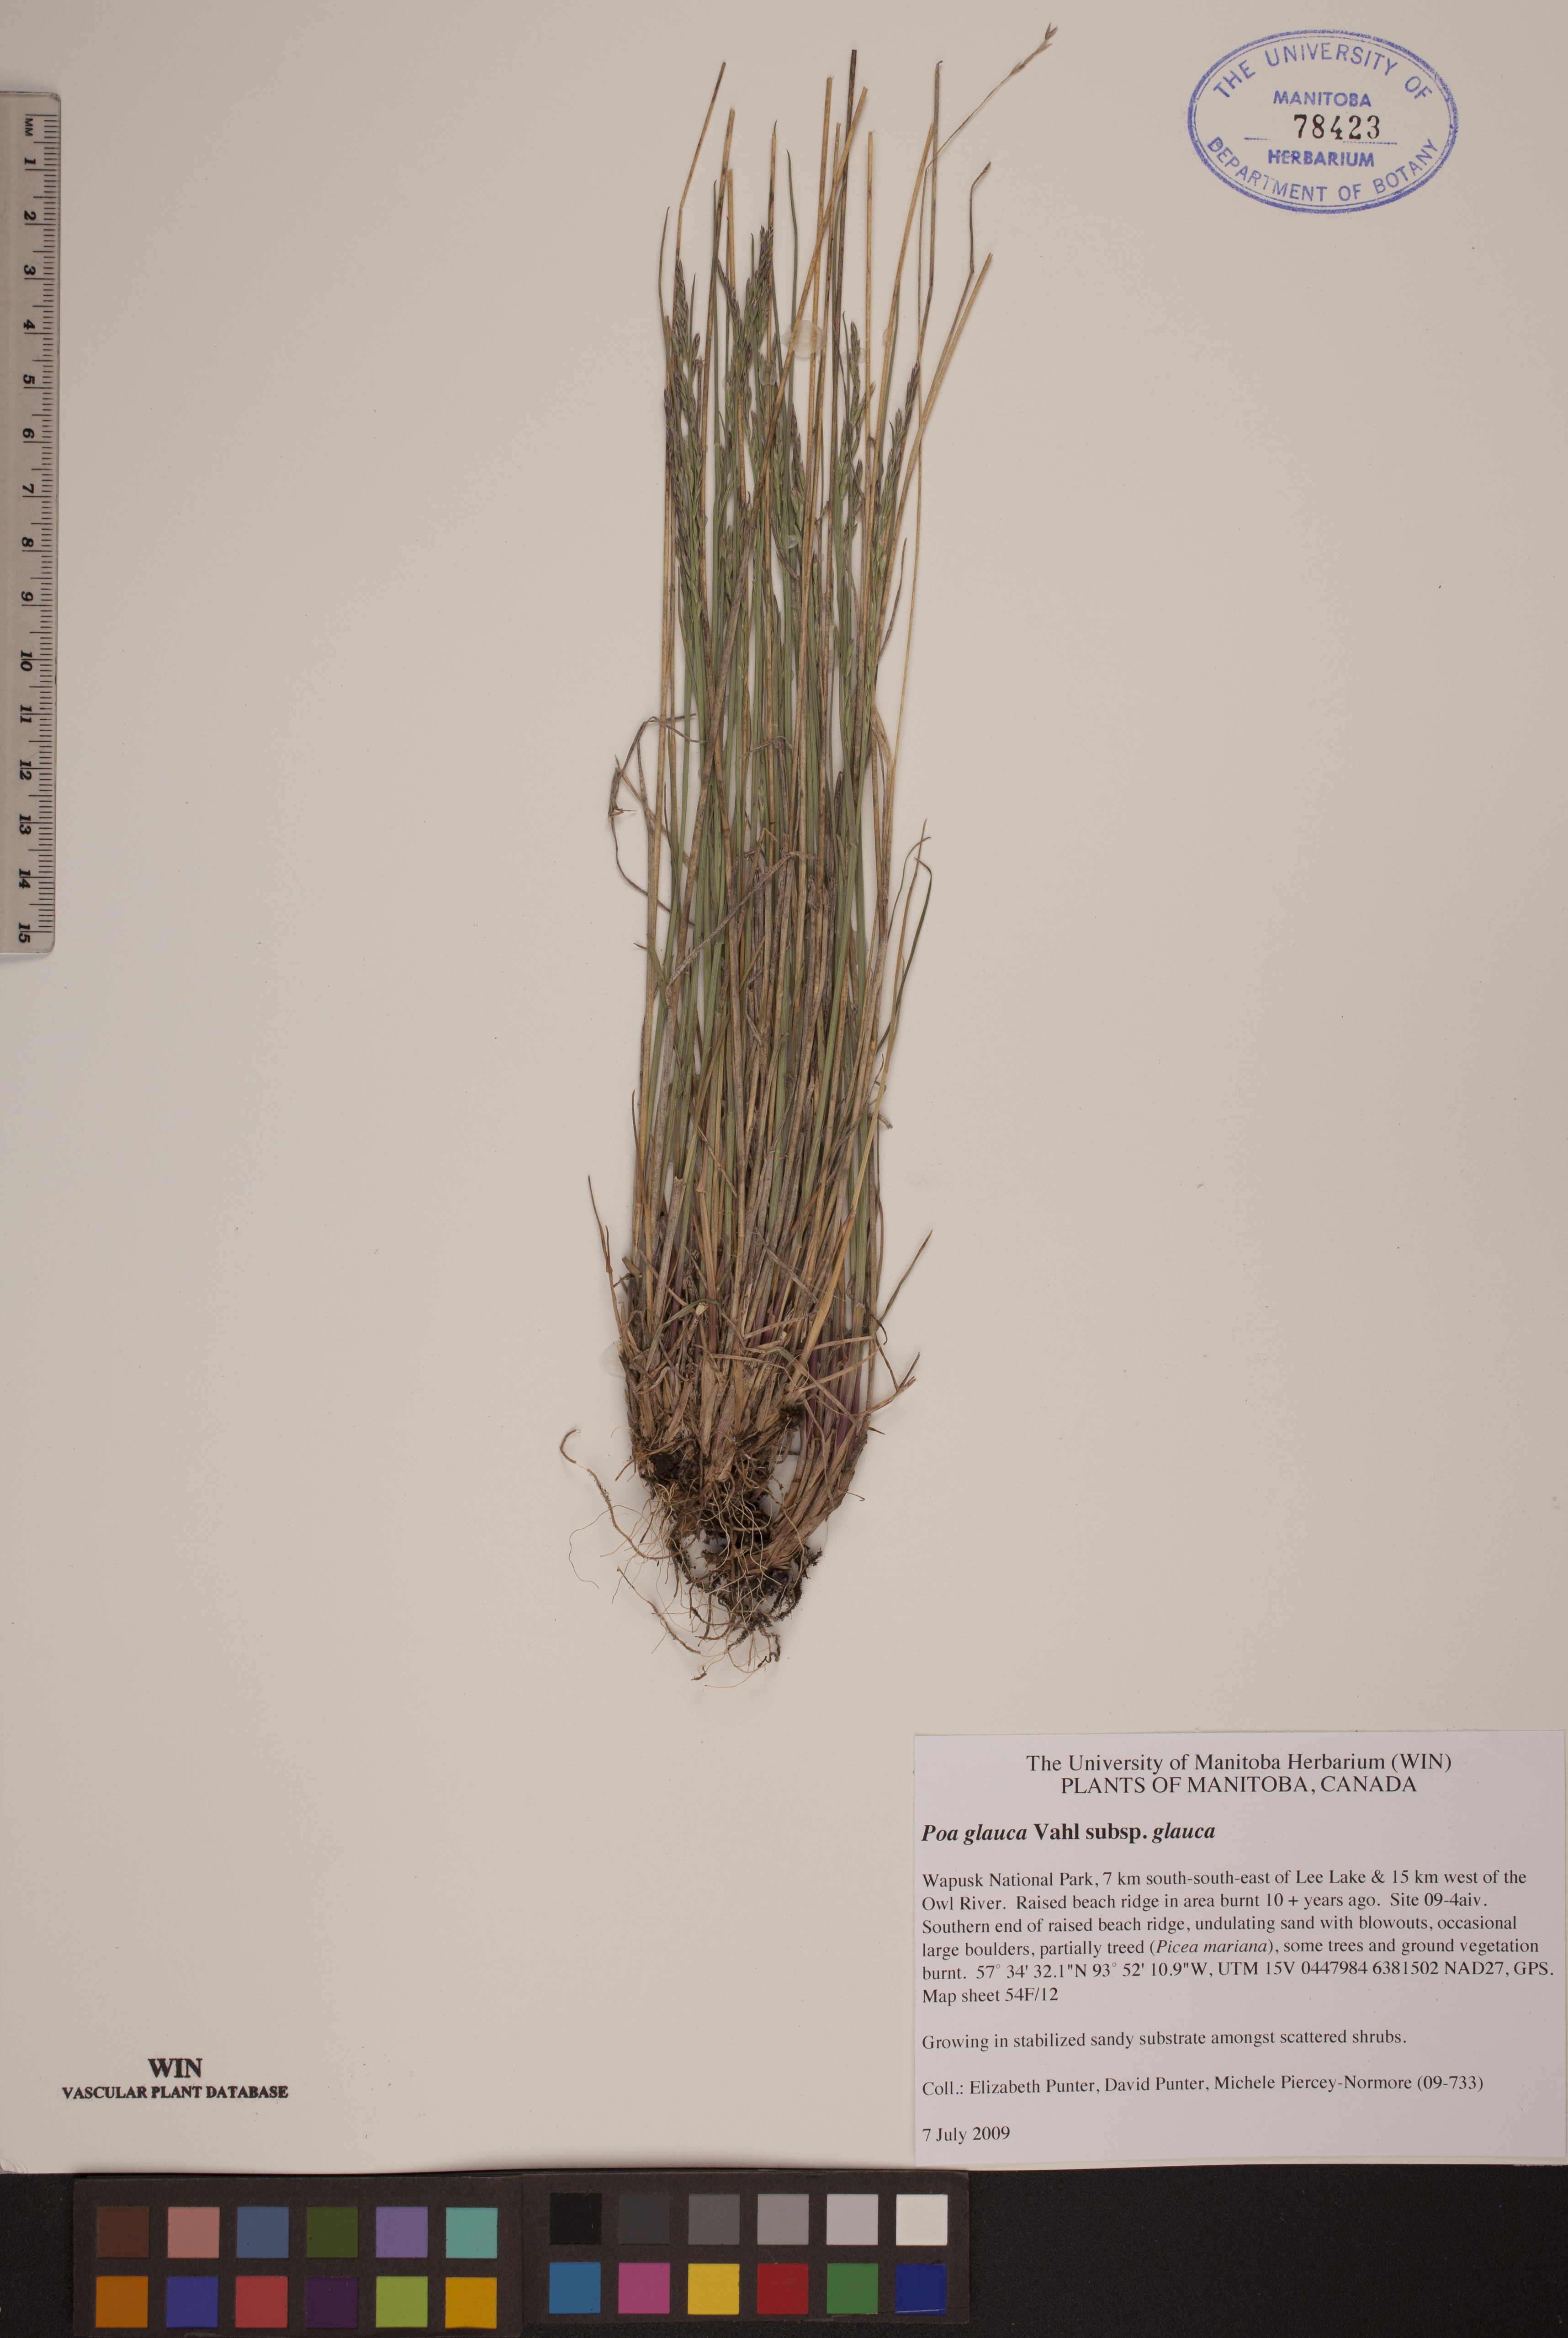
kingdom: Plantae
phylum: Tracheophyta
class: Liliopsida
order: Poales
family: Poaceae
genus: Poa
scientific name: Poa glauca
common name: Glaucous bluegrass
